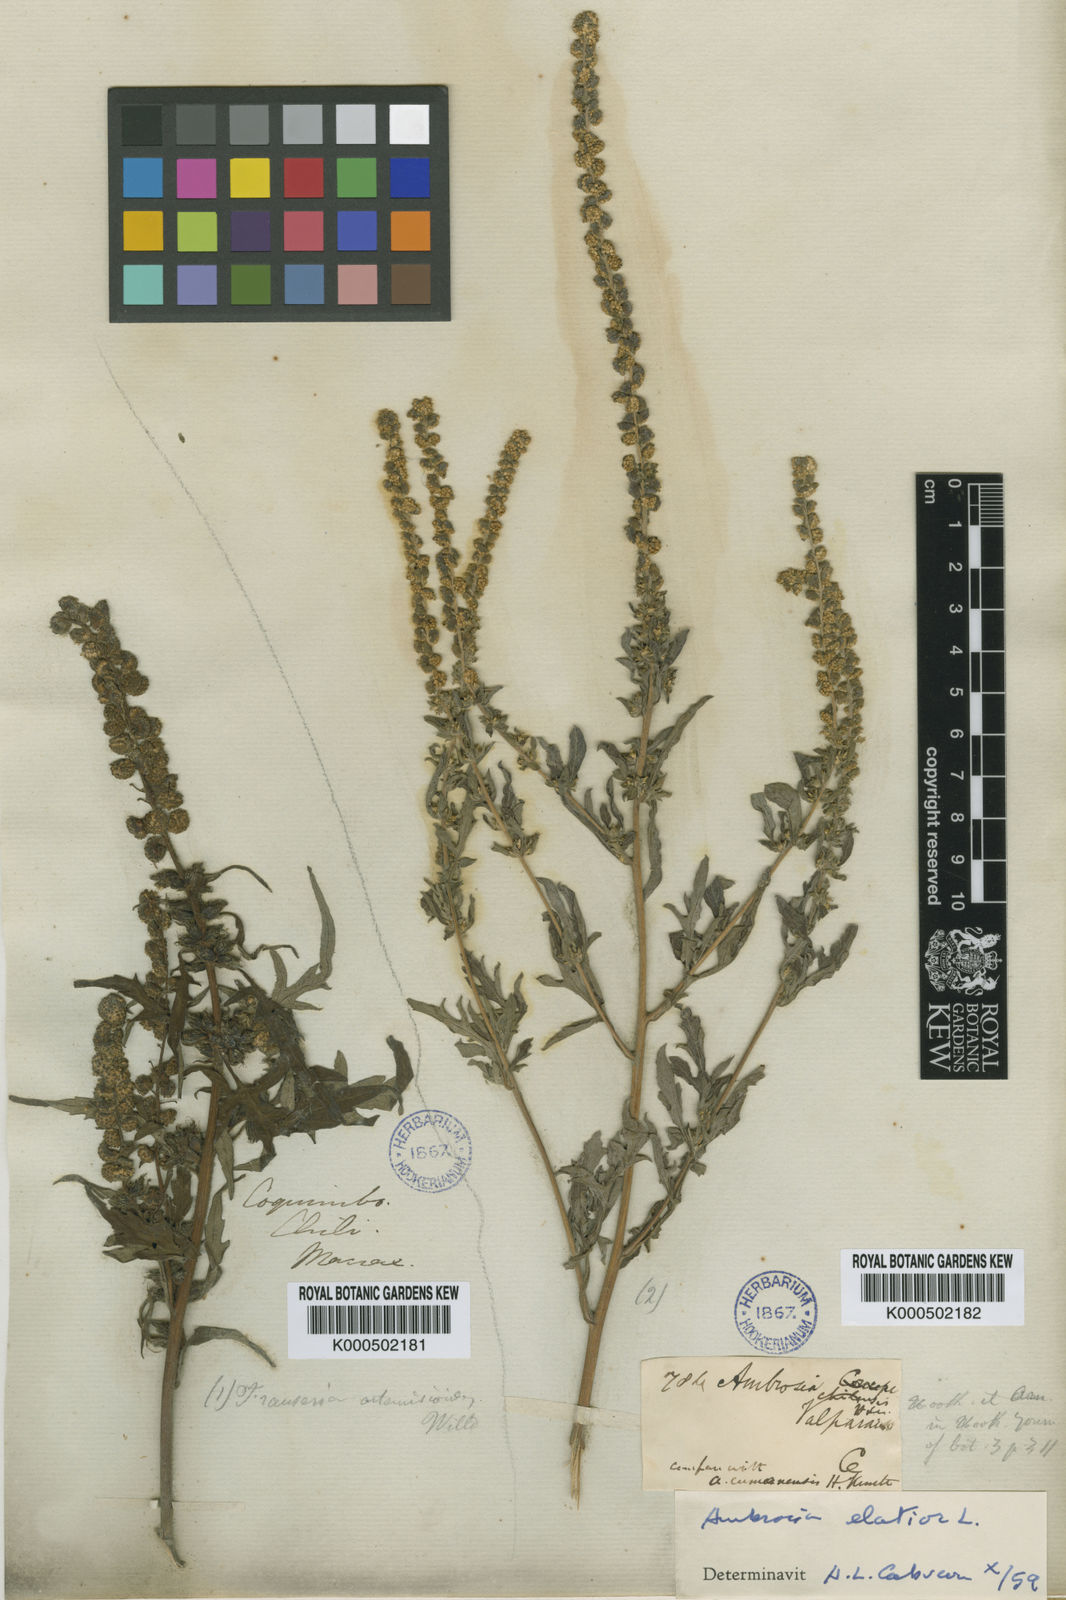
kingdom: Plantae
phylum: Tracheophyta
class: Magnoliopsida
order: Asterales
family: Asteraceae
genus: Ambrosia
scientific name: Ambrosia artemisiifolia
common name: Annual ragweed
